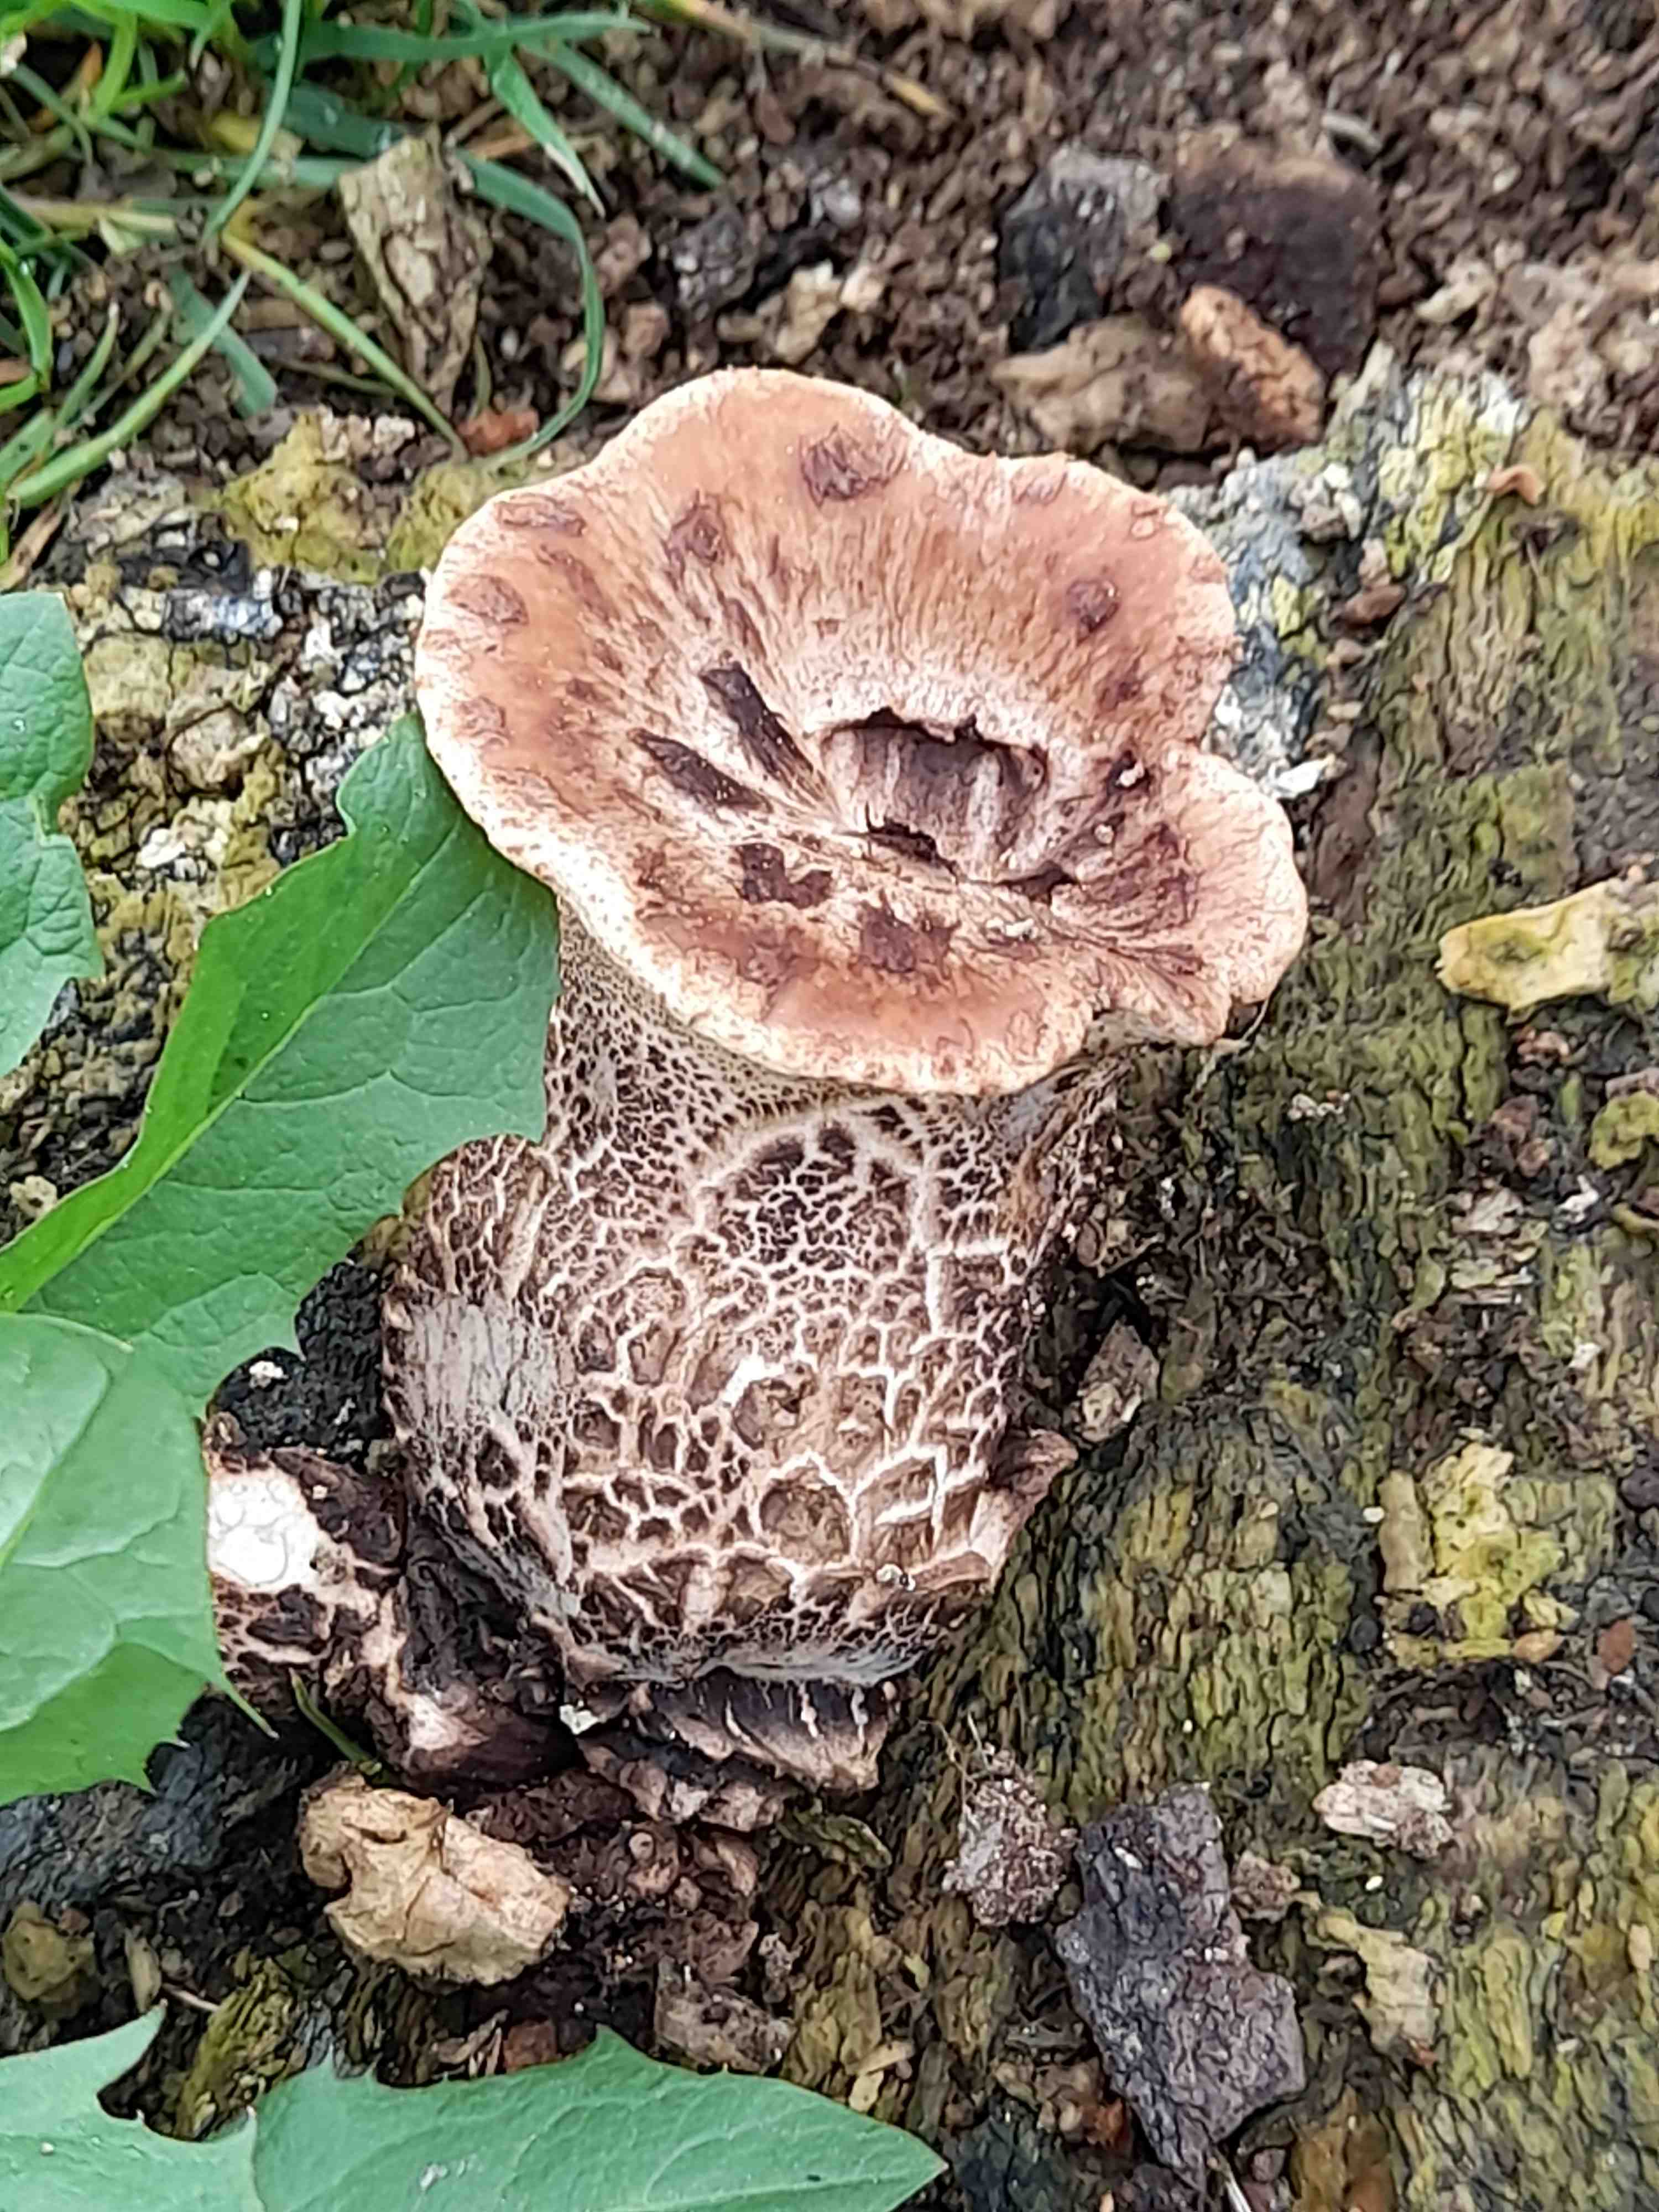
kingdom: Fungi
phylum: Basidiomycota
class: Agaricomycetes
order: Polyporales
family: Polyporaceae
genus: Cerioporus
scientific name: Cerioporus squamosus
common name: skællet stilkporesvamp
